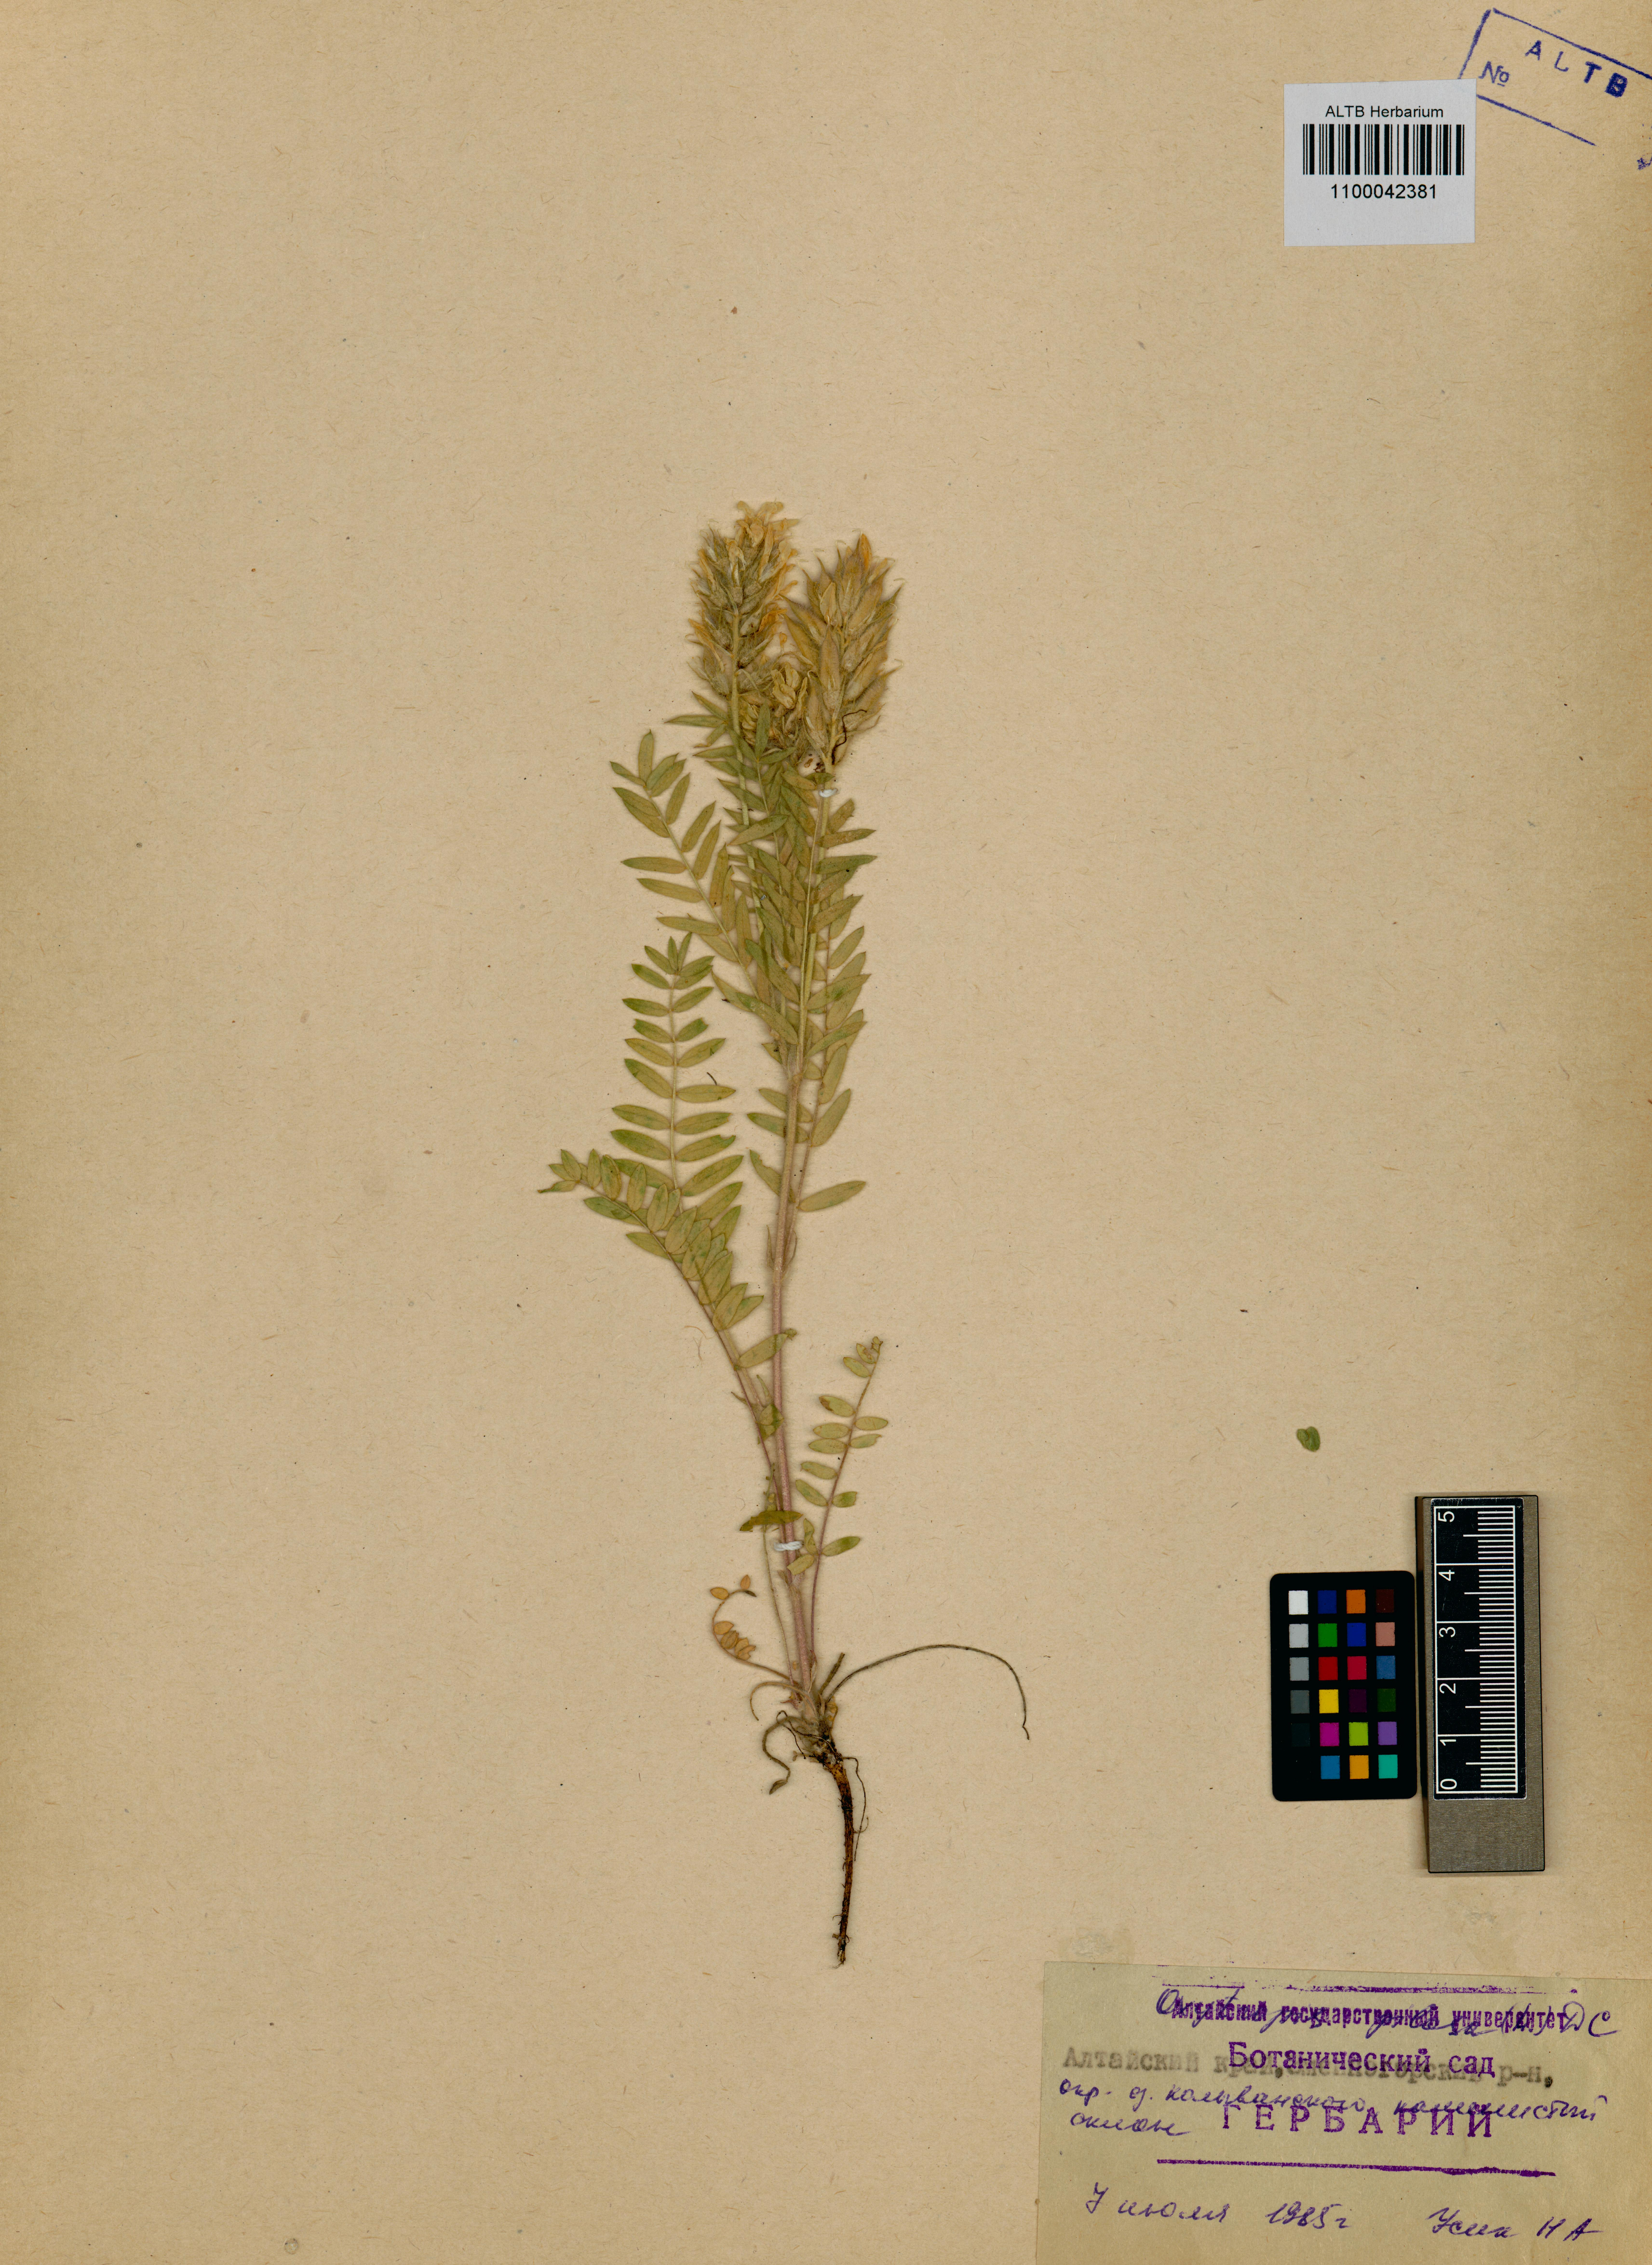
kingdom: Plantae
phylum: Tracheophyta
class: Magnoliopsida
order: Fabales
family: Fabaceae
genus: Oxytropis
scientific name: Oxytropis pilosa
